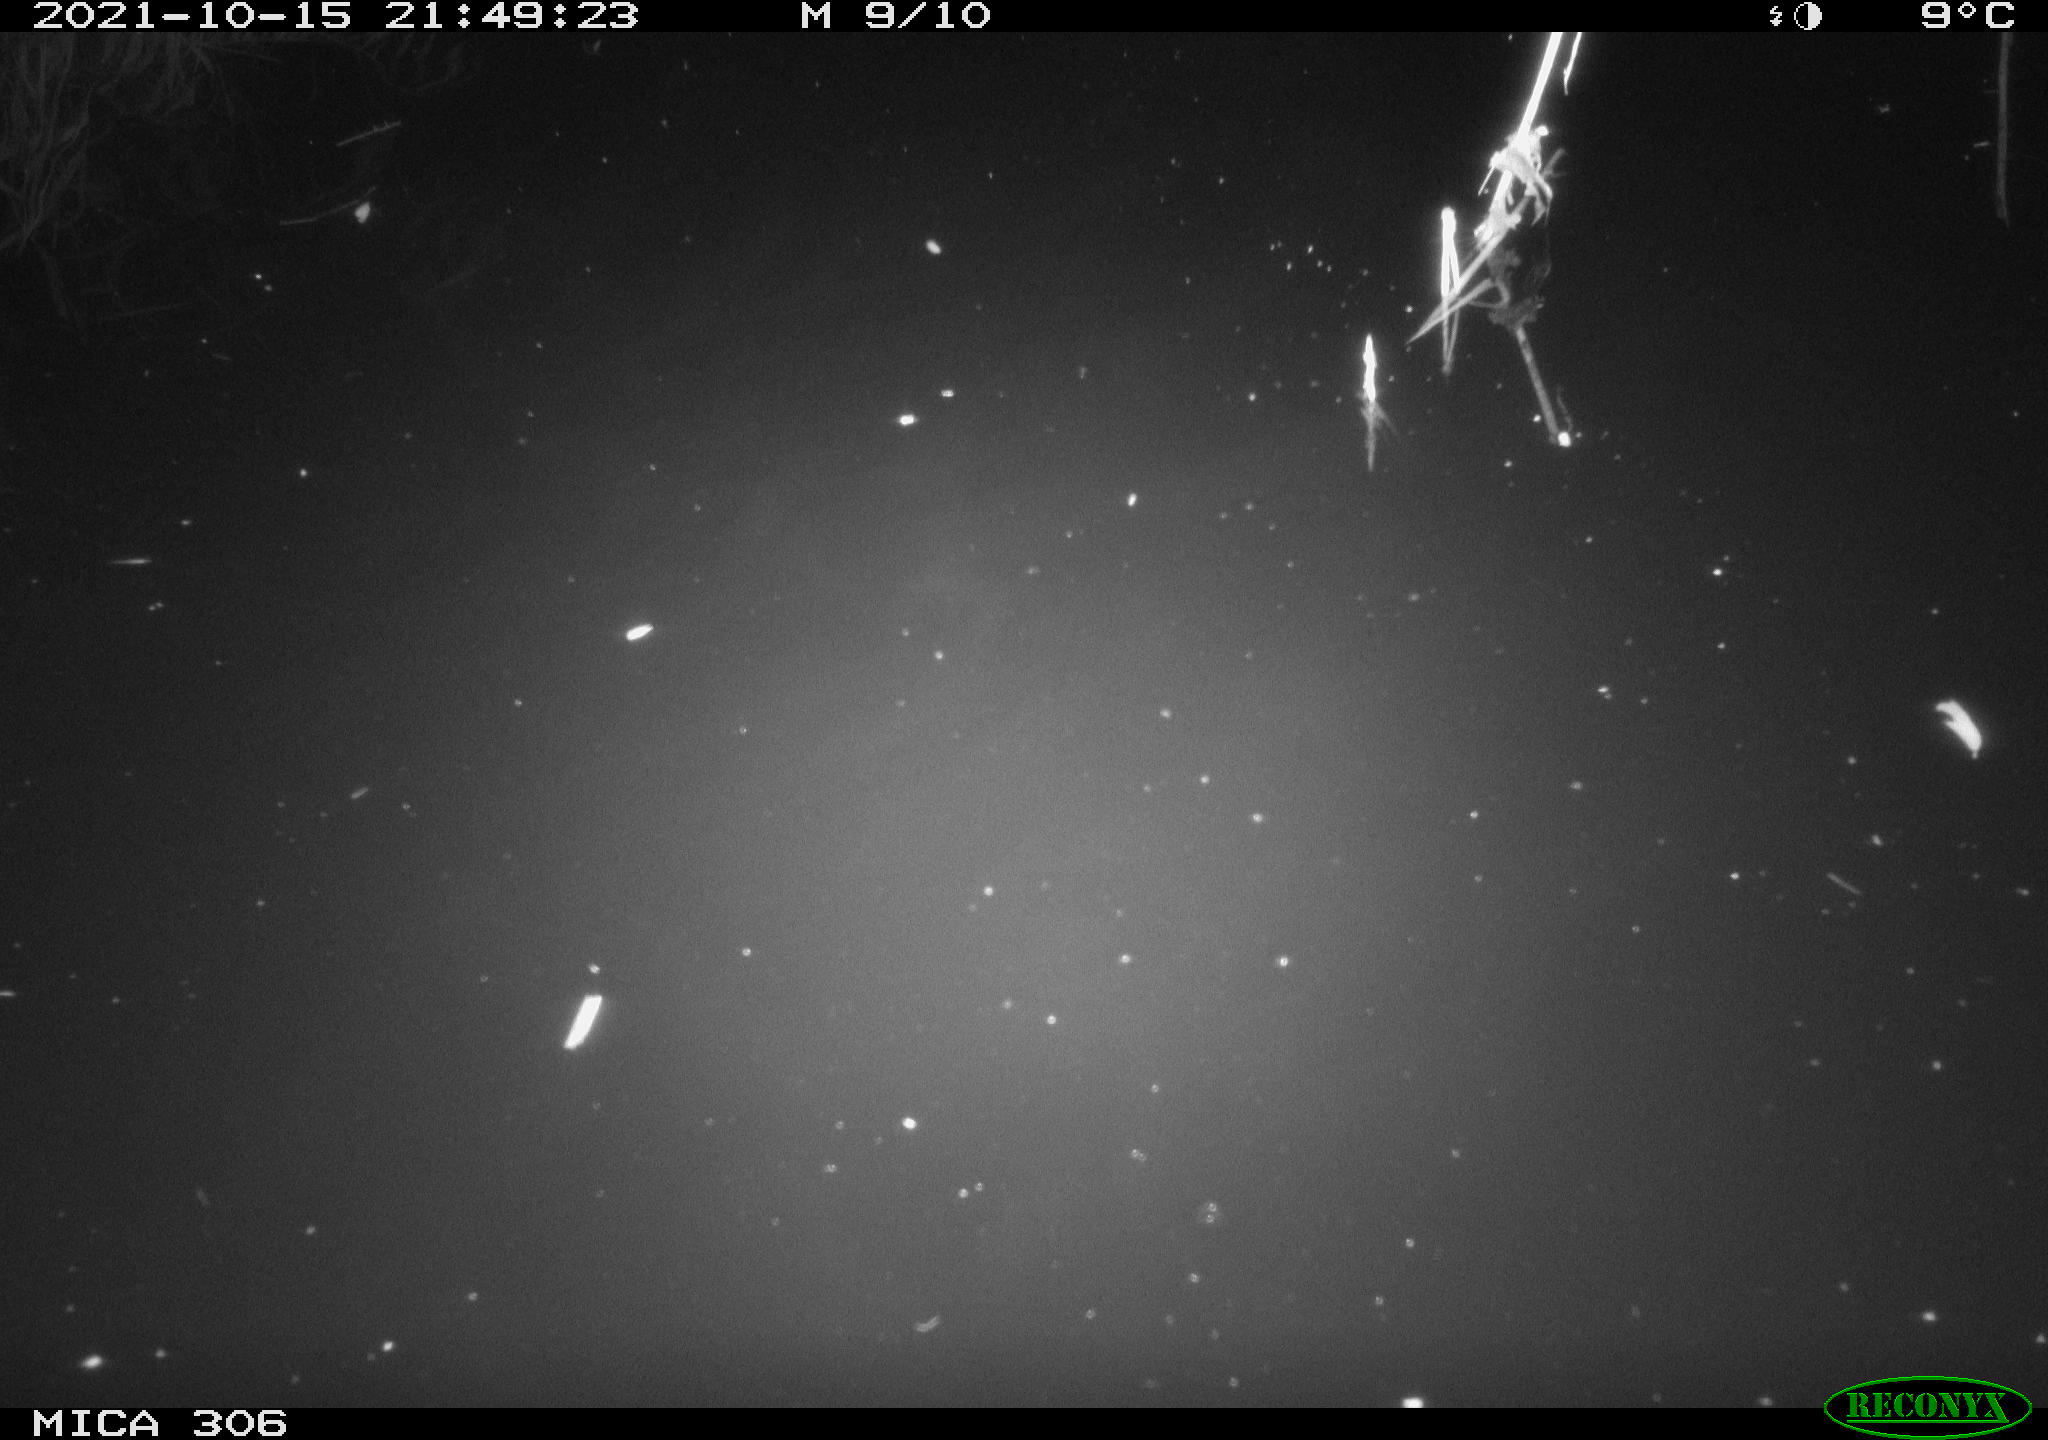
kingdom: Animalia
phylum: Chordata
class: Aves
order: Gruiformes
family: Rallidae
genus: Gallinula
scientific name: Gallinula chloropus
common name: Common moorhen
